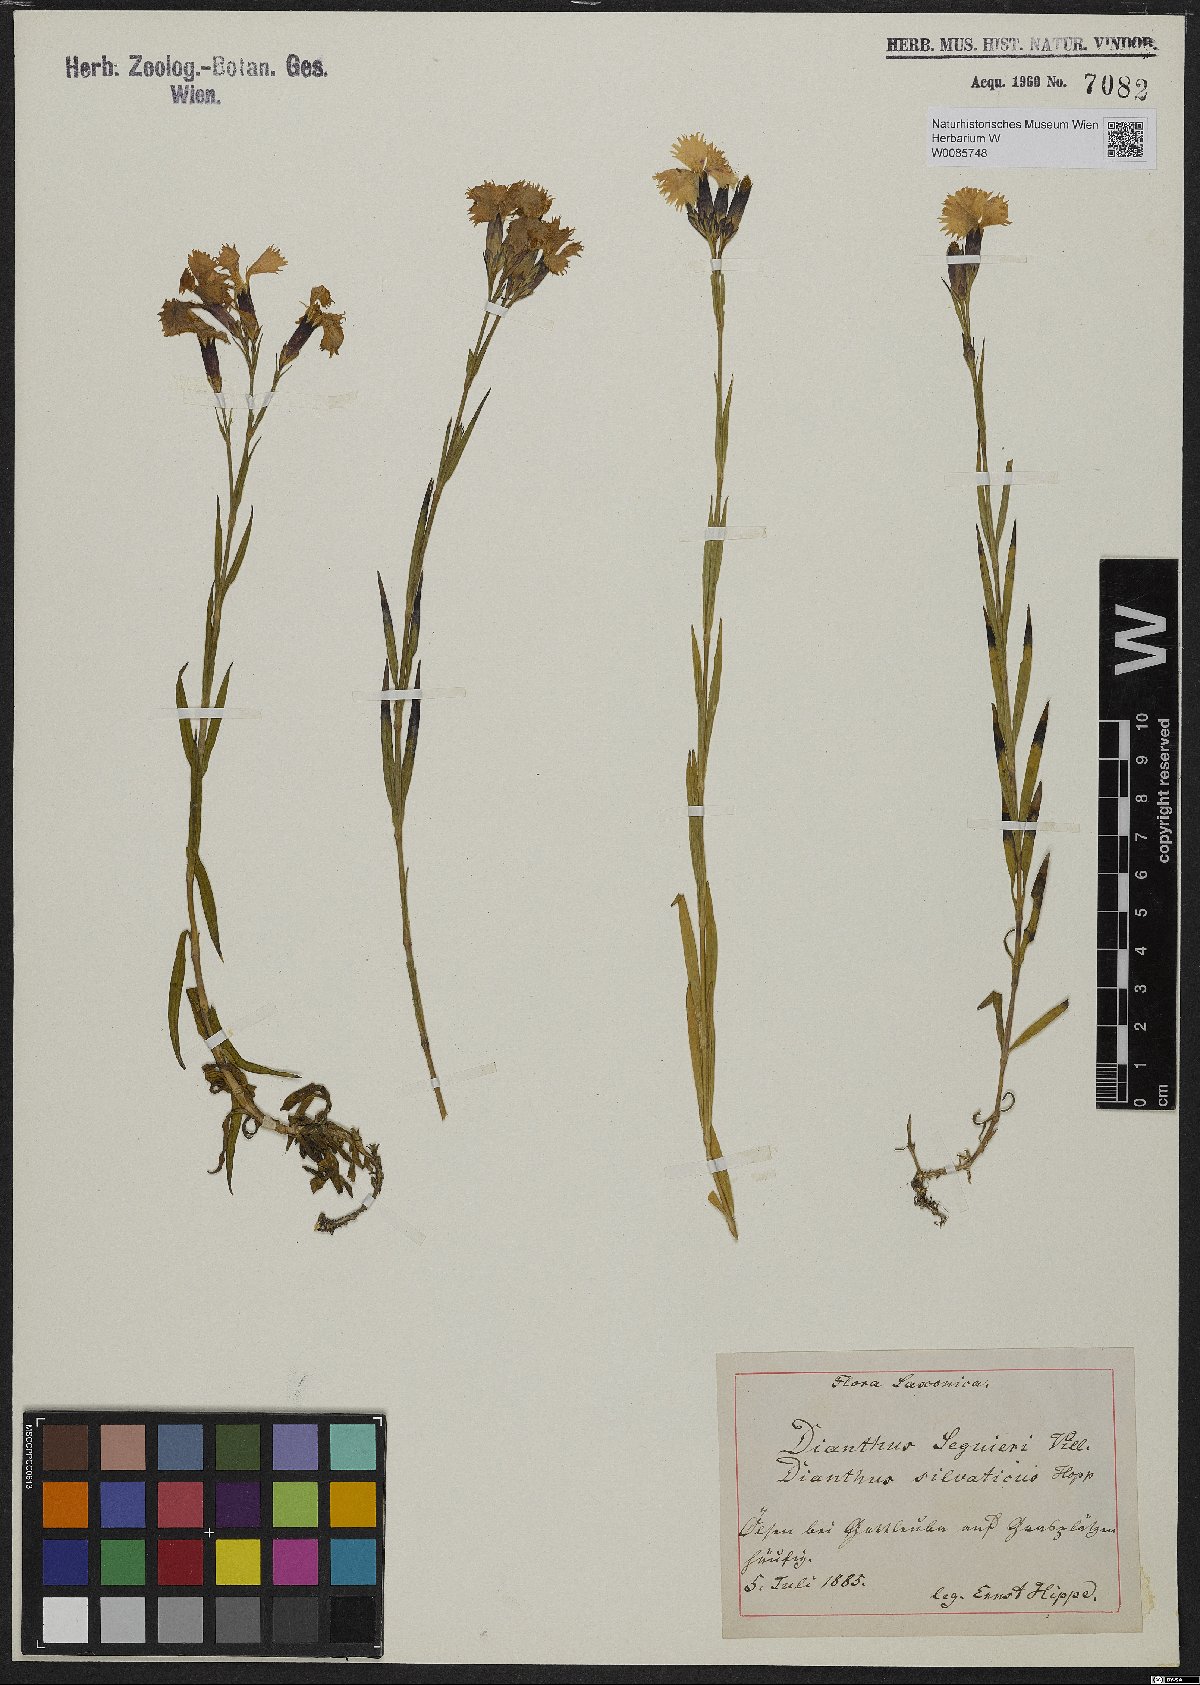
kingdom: Plantae
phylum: Tracheophyta
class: Magnoliopsida
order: Caryophyllales
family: Caryophyllaceae
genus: Dianthus
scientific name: Dianthus seguieri
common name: Ragged pink
